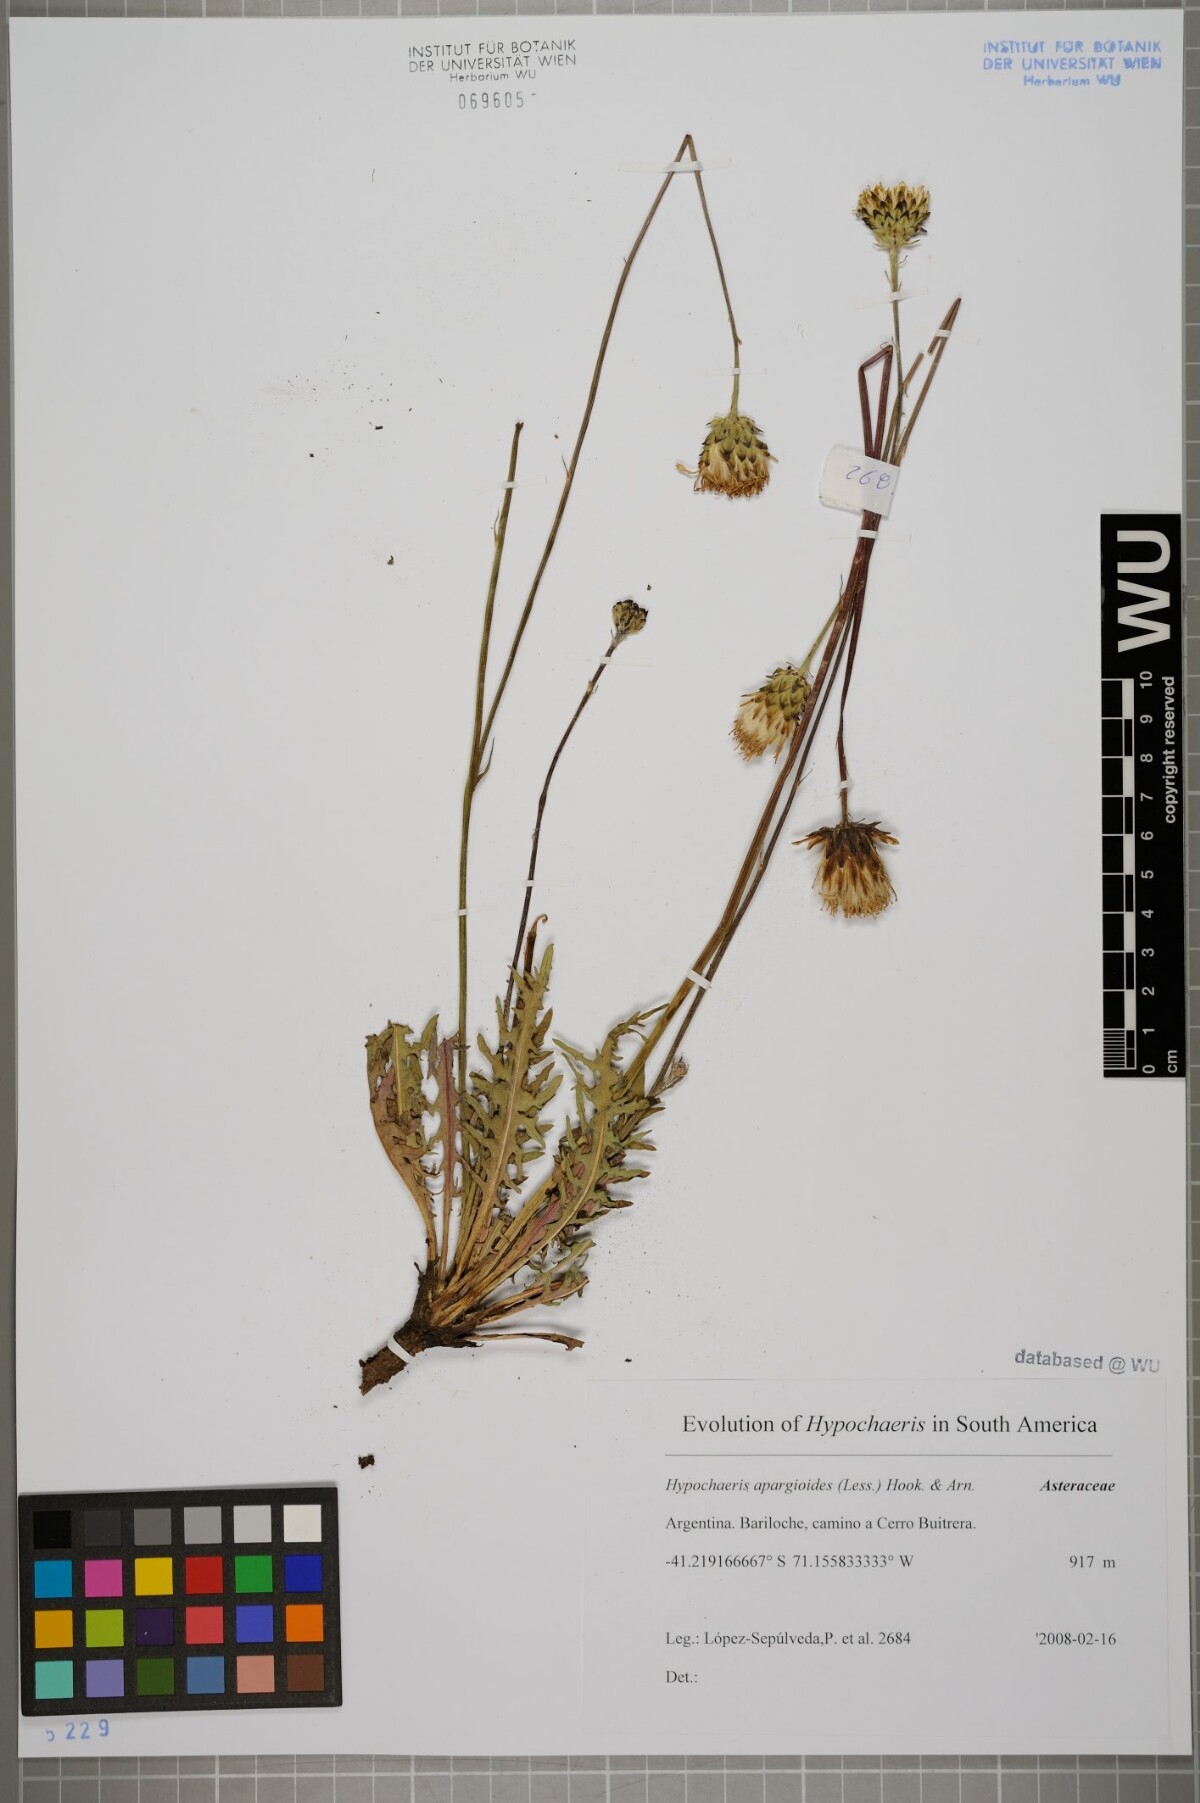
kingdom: Plantae
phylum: Tracheophyta
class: Magnoliopsida
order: Asterales
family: Asteraceae
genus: Hypochaeris
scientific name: Hypochaeris apargioides
